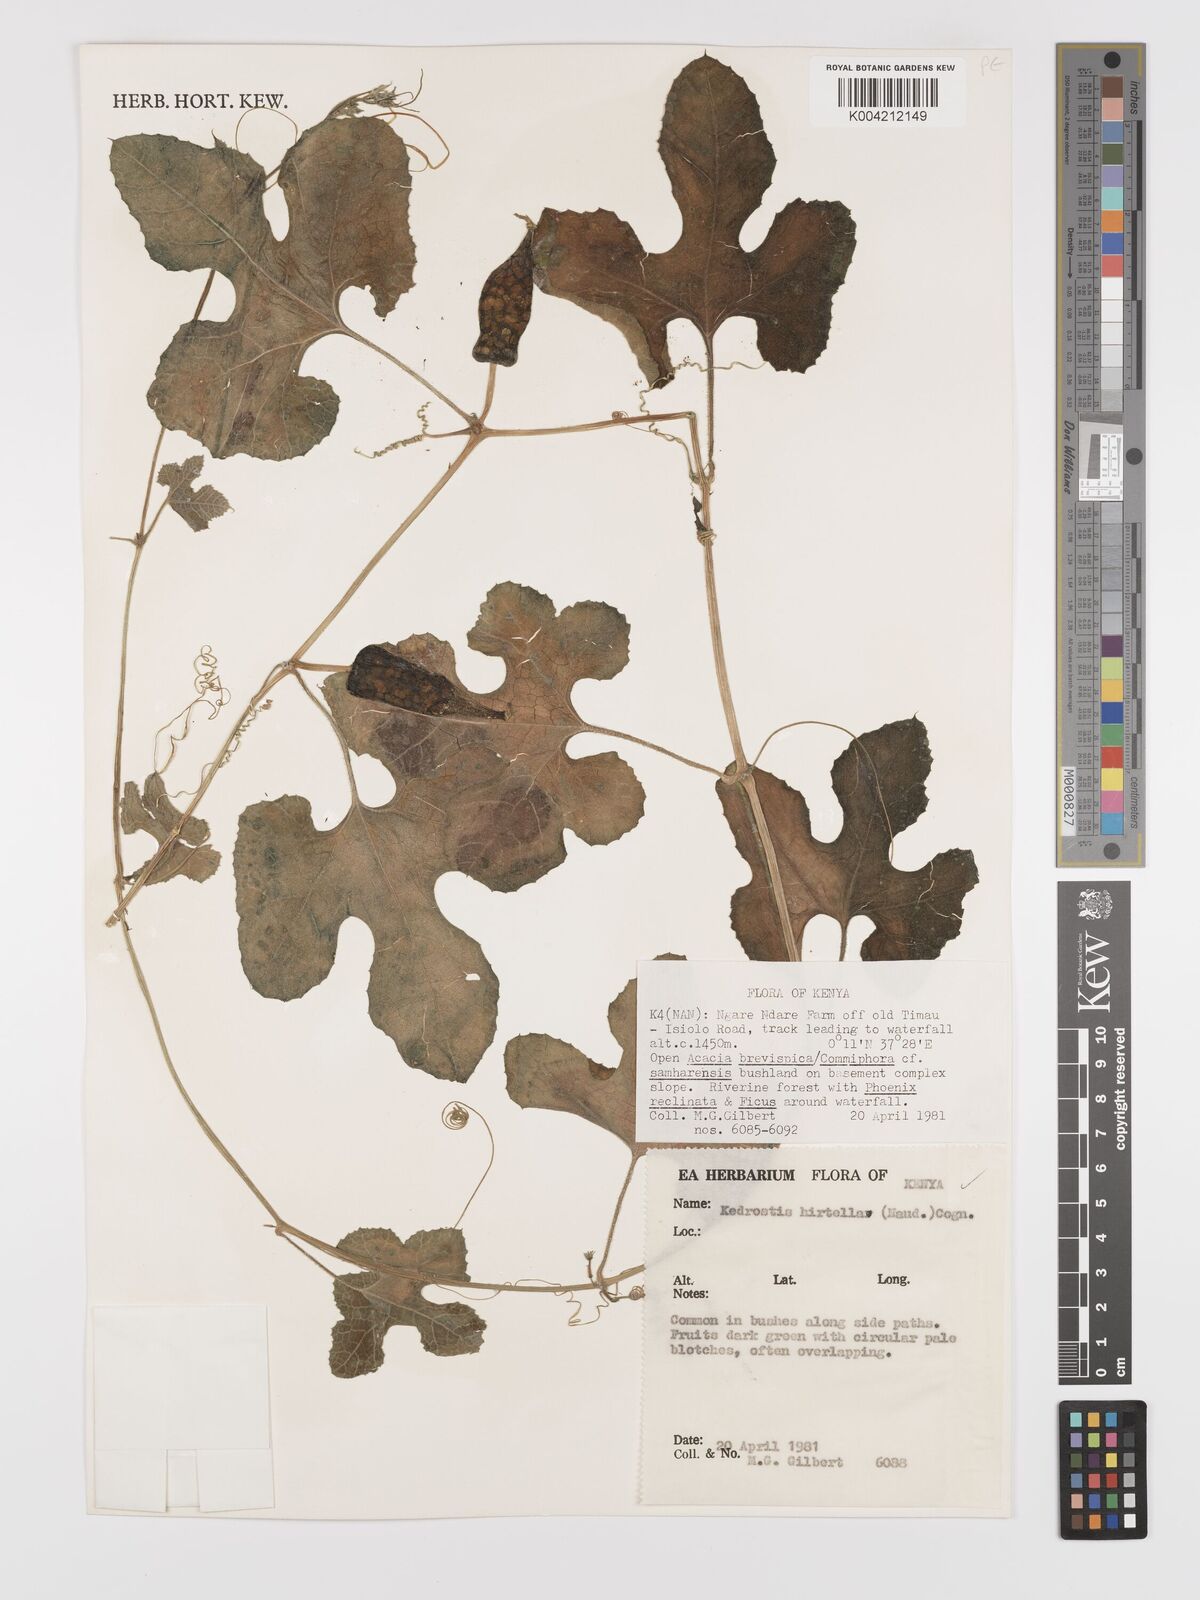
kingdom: Plantae
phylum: Tracheophyta
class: Magnoliopsida
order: Cucurbitales
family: Cucurbitaceae
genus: Kedrostis
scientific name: Kedrostis leloja
